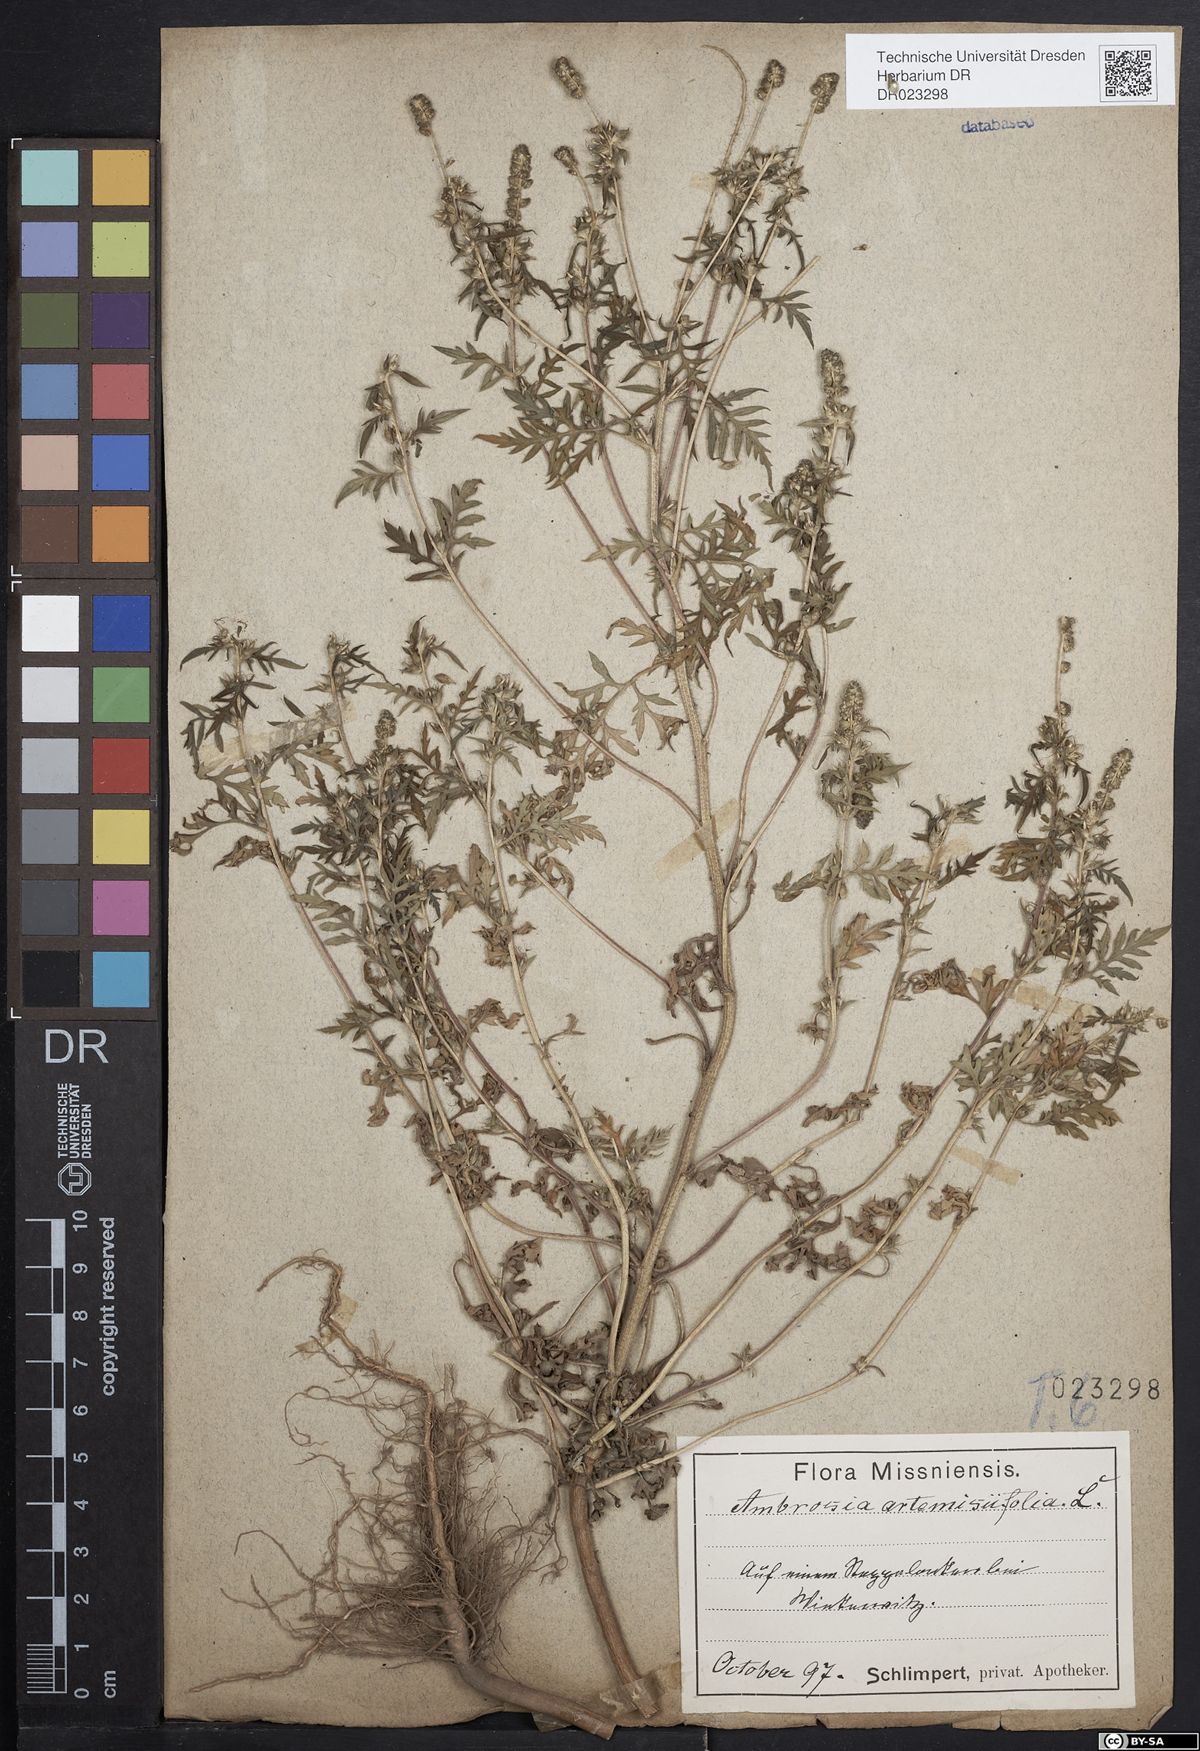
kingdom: Plantae
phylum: Tracheophyta
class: Magnoliopsida
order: Asterales
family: Asteraceae
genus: Ambrosia
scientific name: Ambrosia artemisiifolia
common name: Annual ragweed
